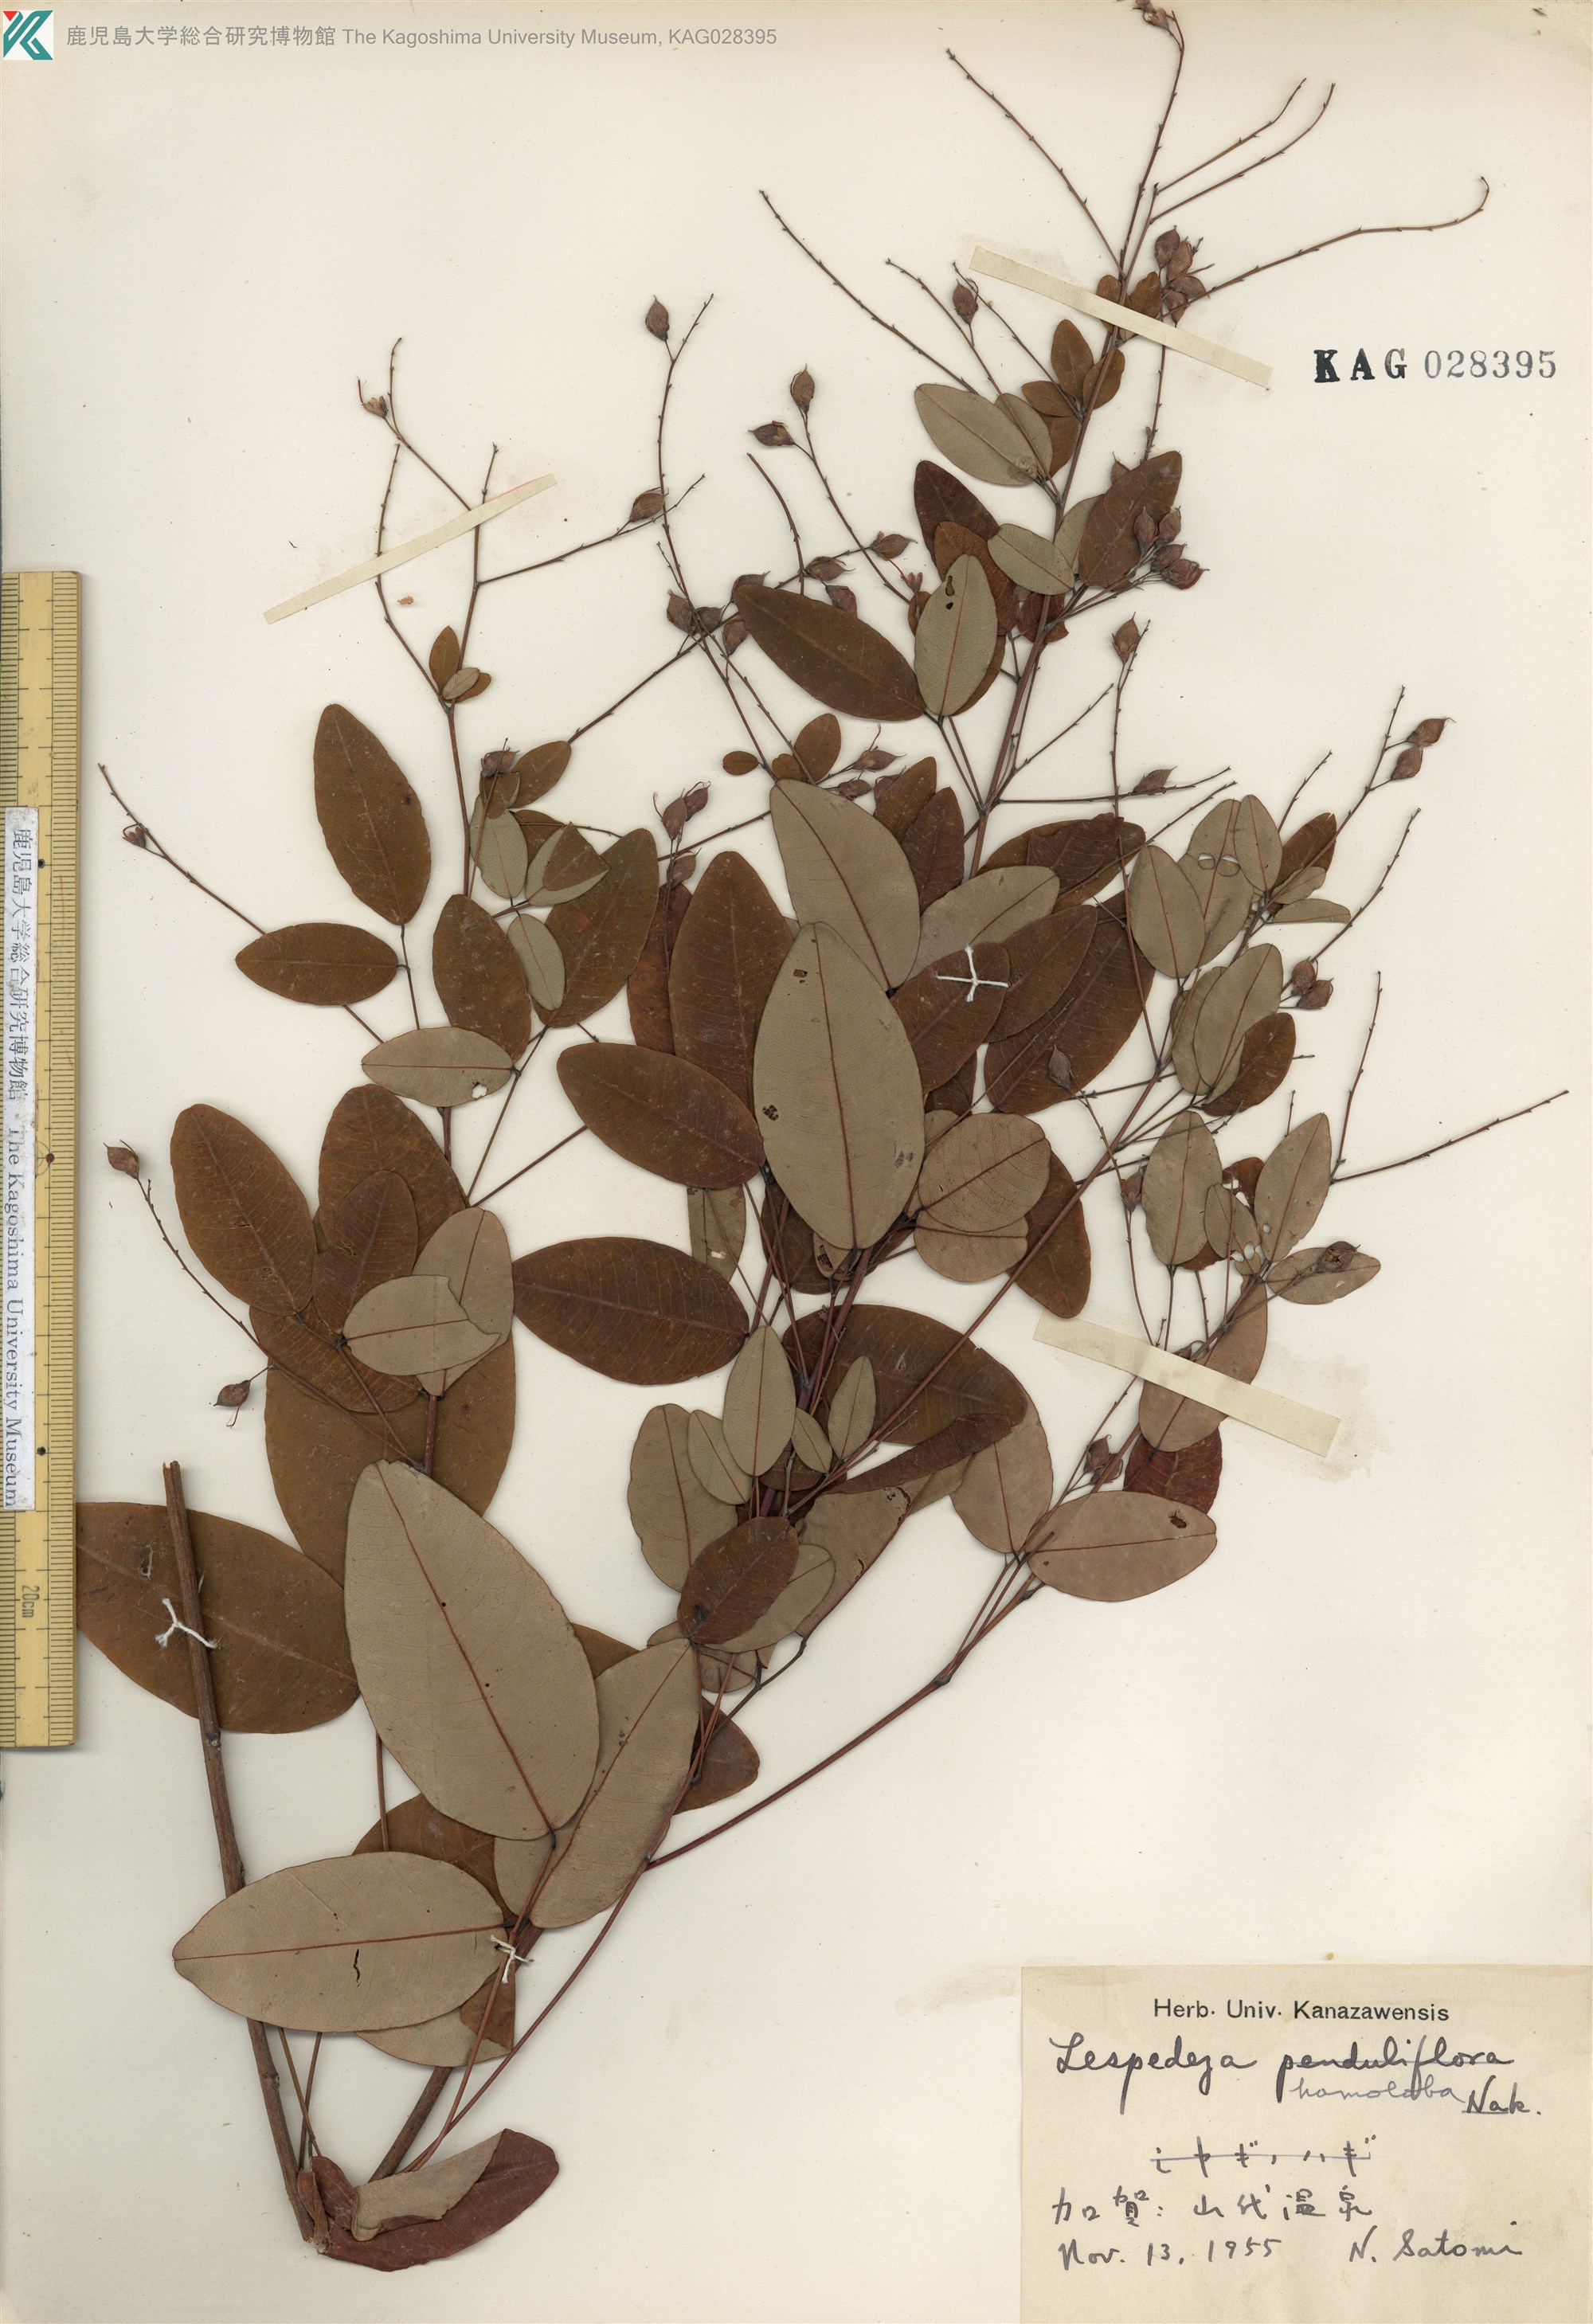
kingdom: Plantae
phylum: Tracheophyta
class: Magnoliopsida
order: Fabales
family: Fabaceae
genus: Lespedeza
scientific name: Lespedeza homoloba
